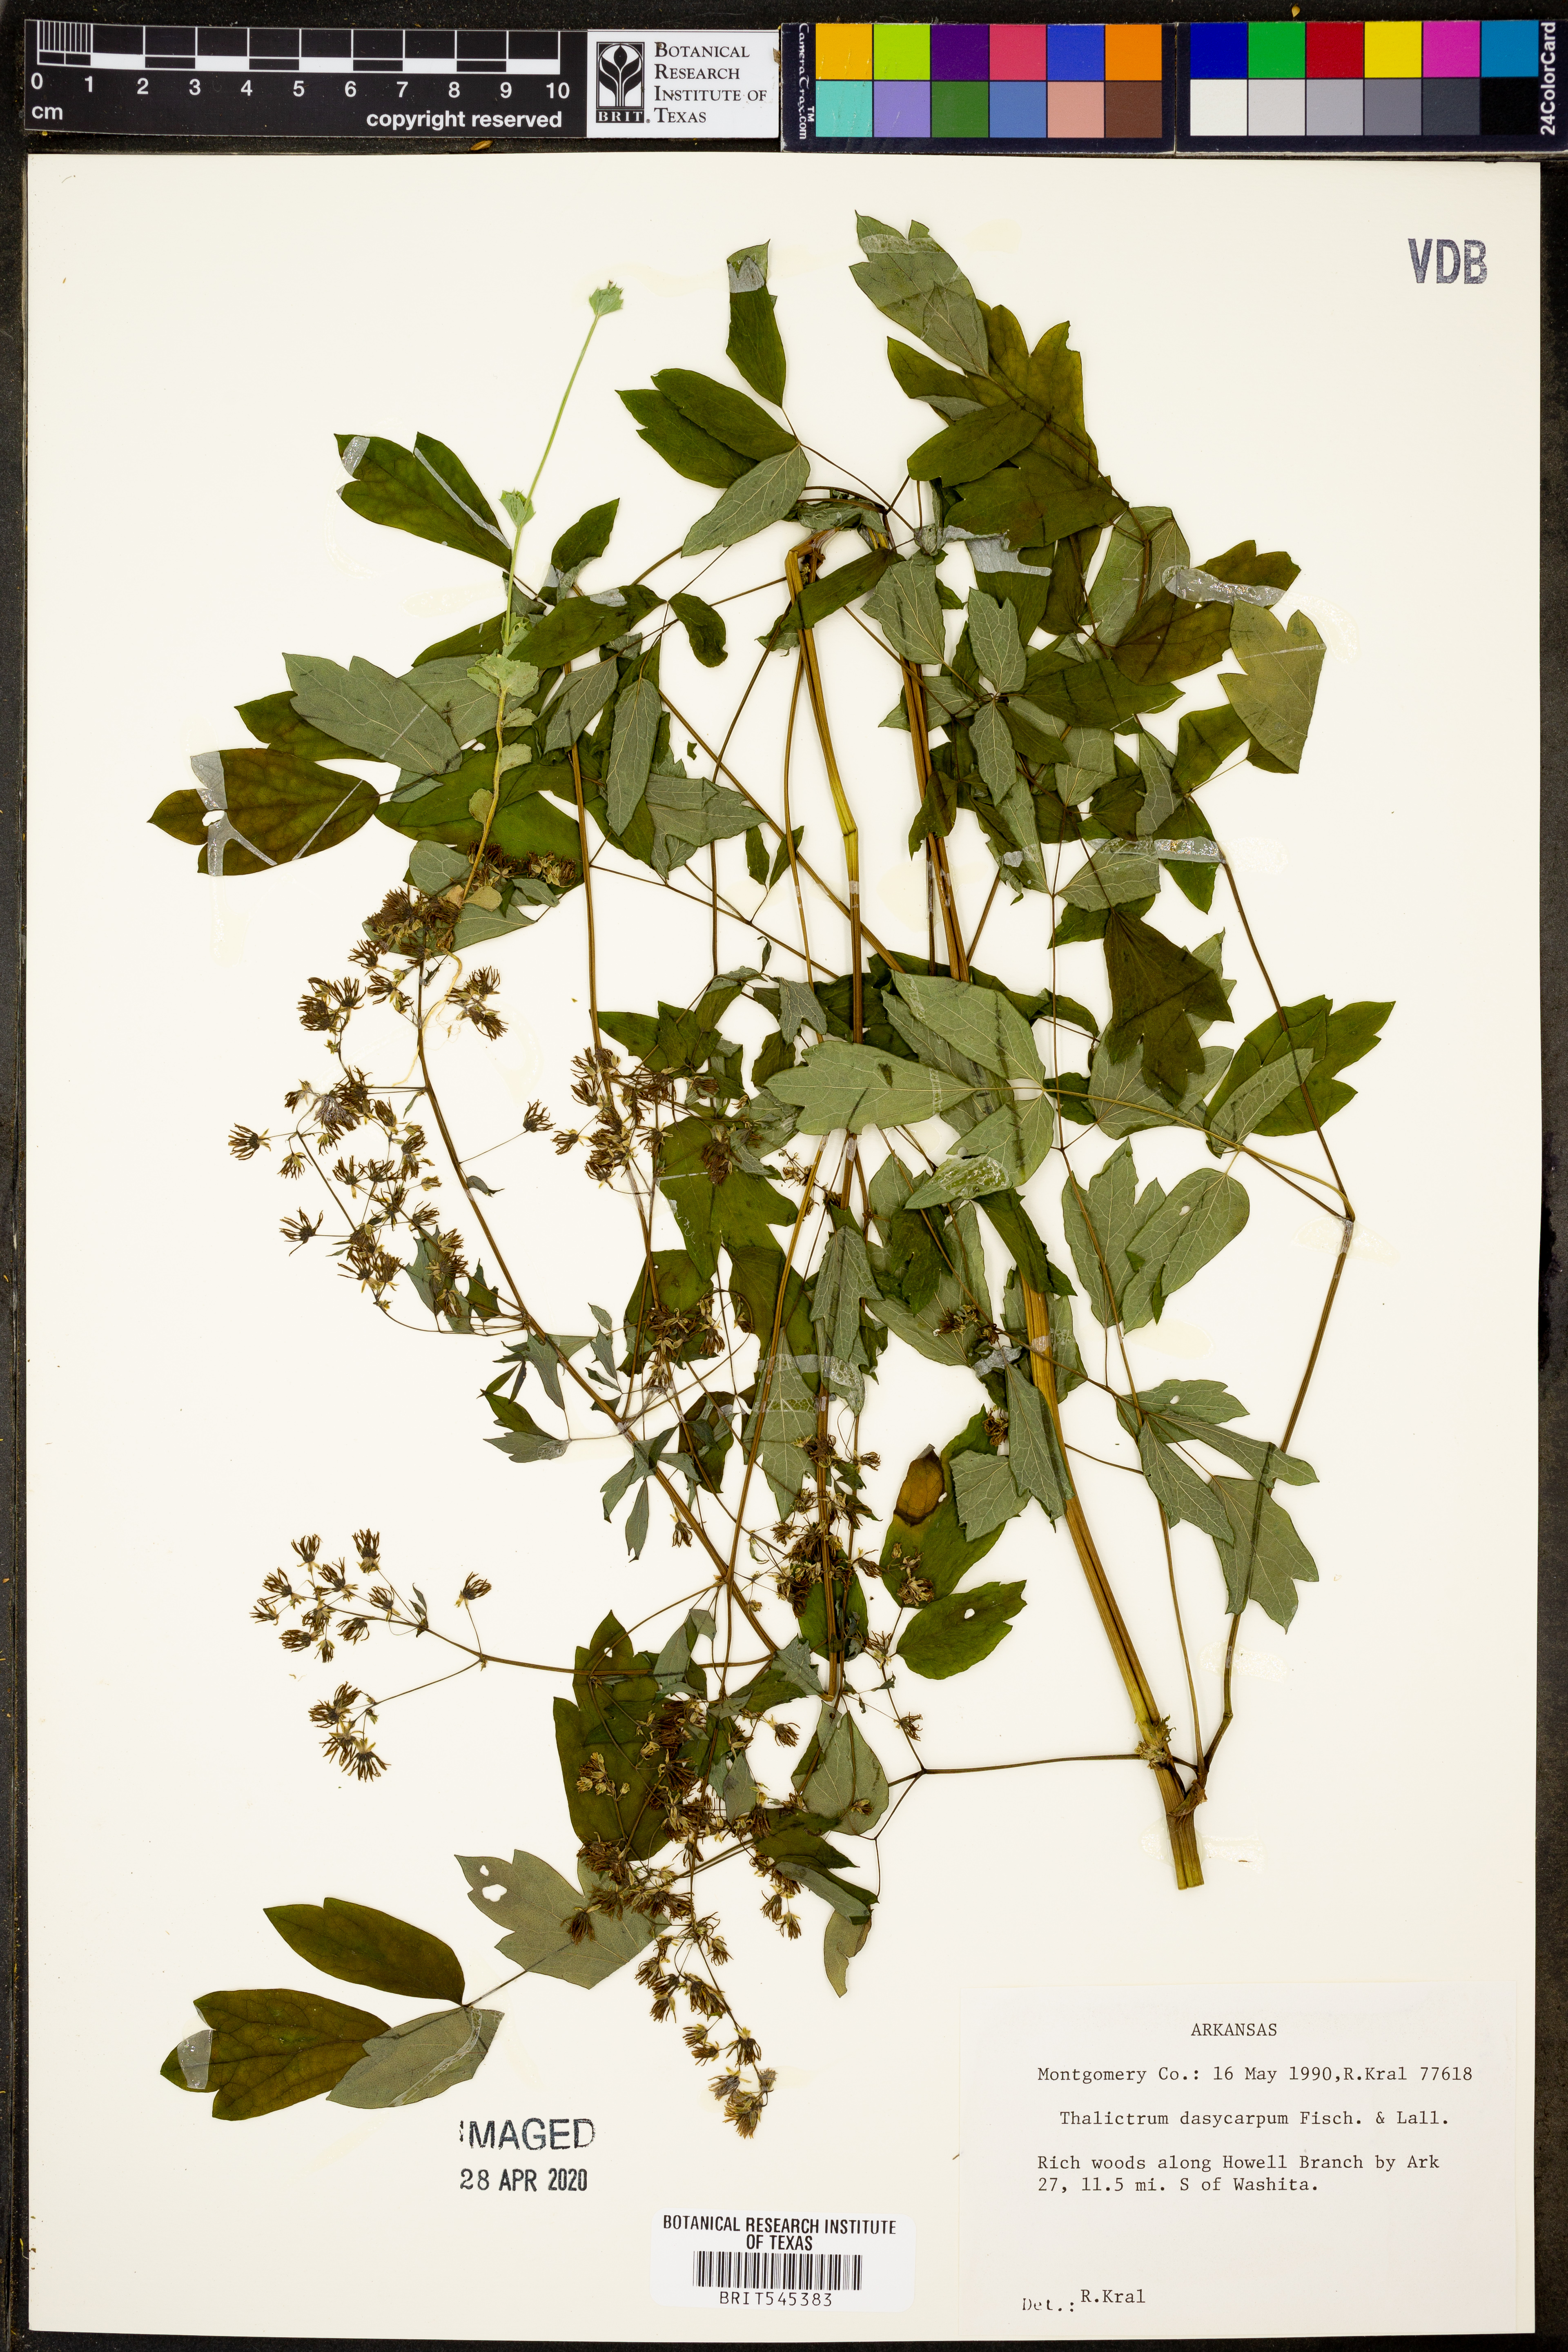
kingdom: Plantae
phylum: Tracheophyta
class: Magnoliopsida
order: Ranunculales
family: Ranunculaceae
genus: Thalictrum
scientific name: Thalictrum dasycarpum
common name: Purple meadow-rue
